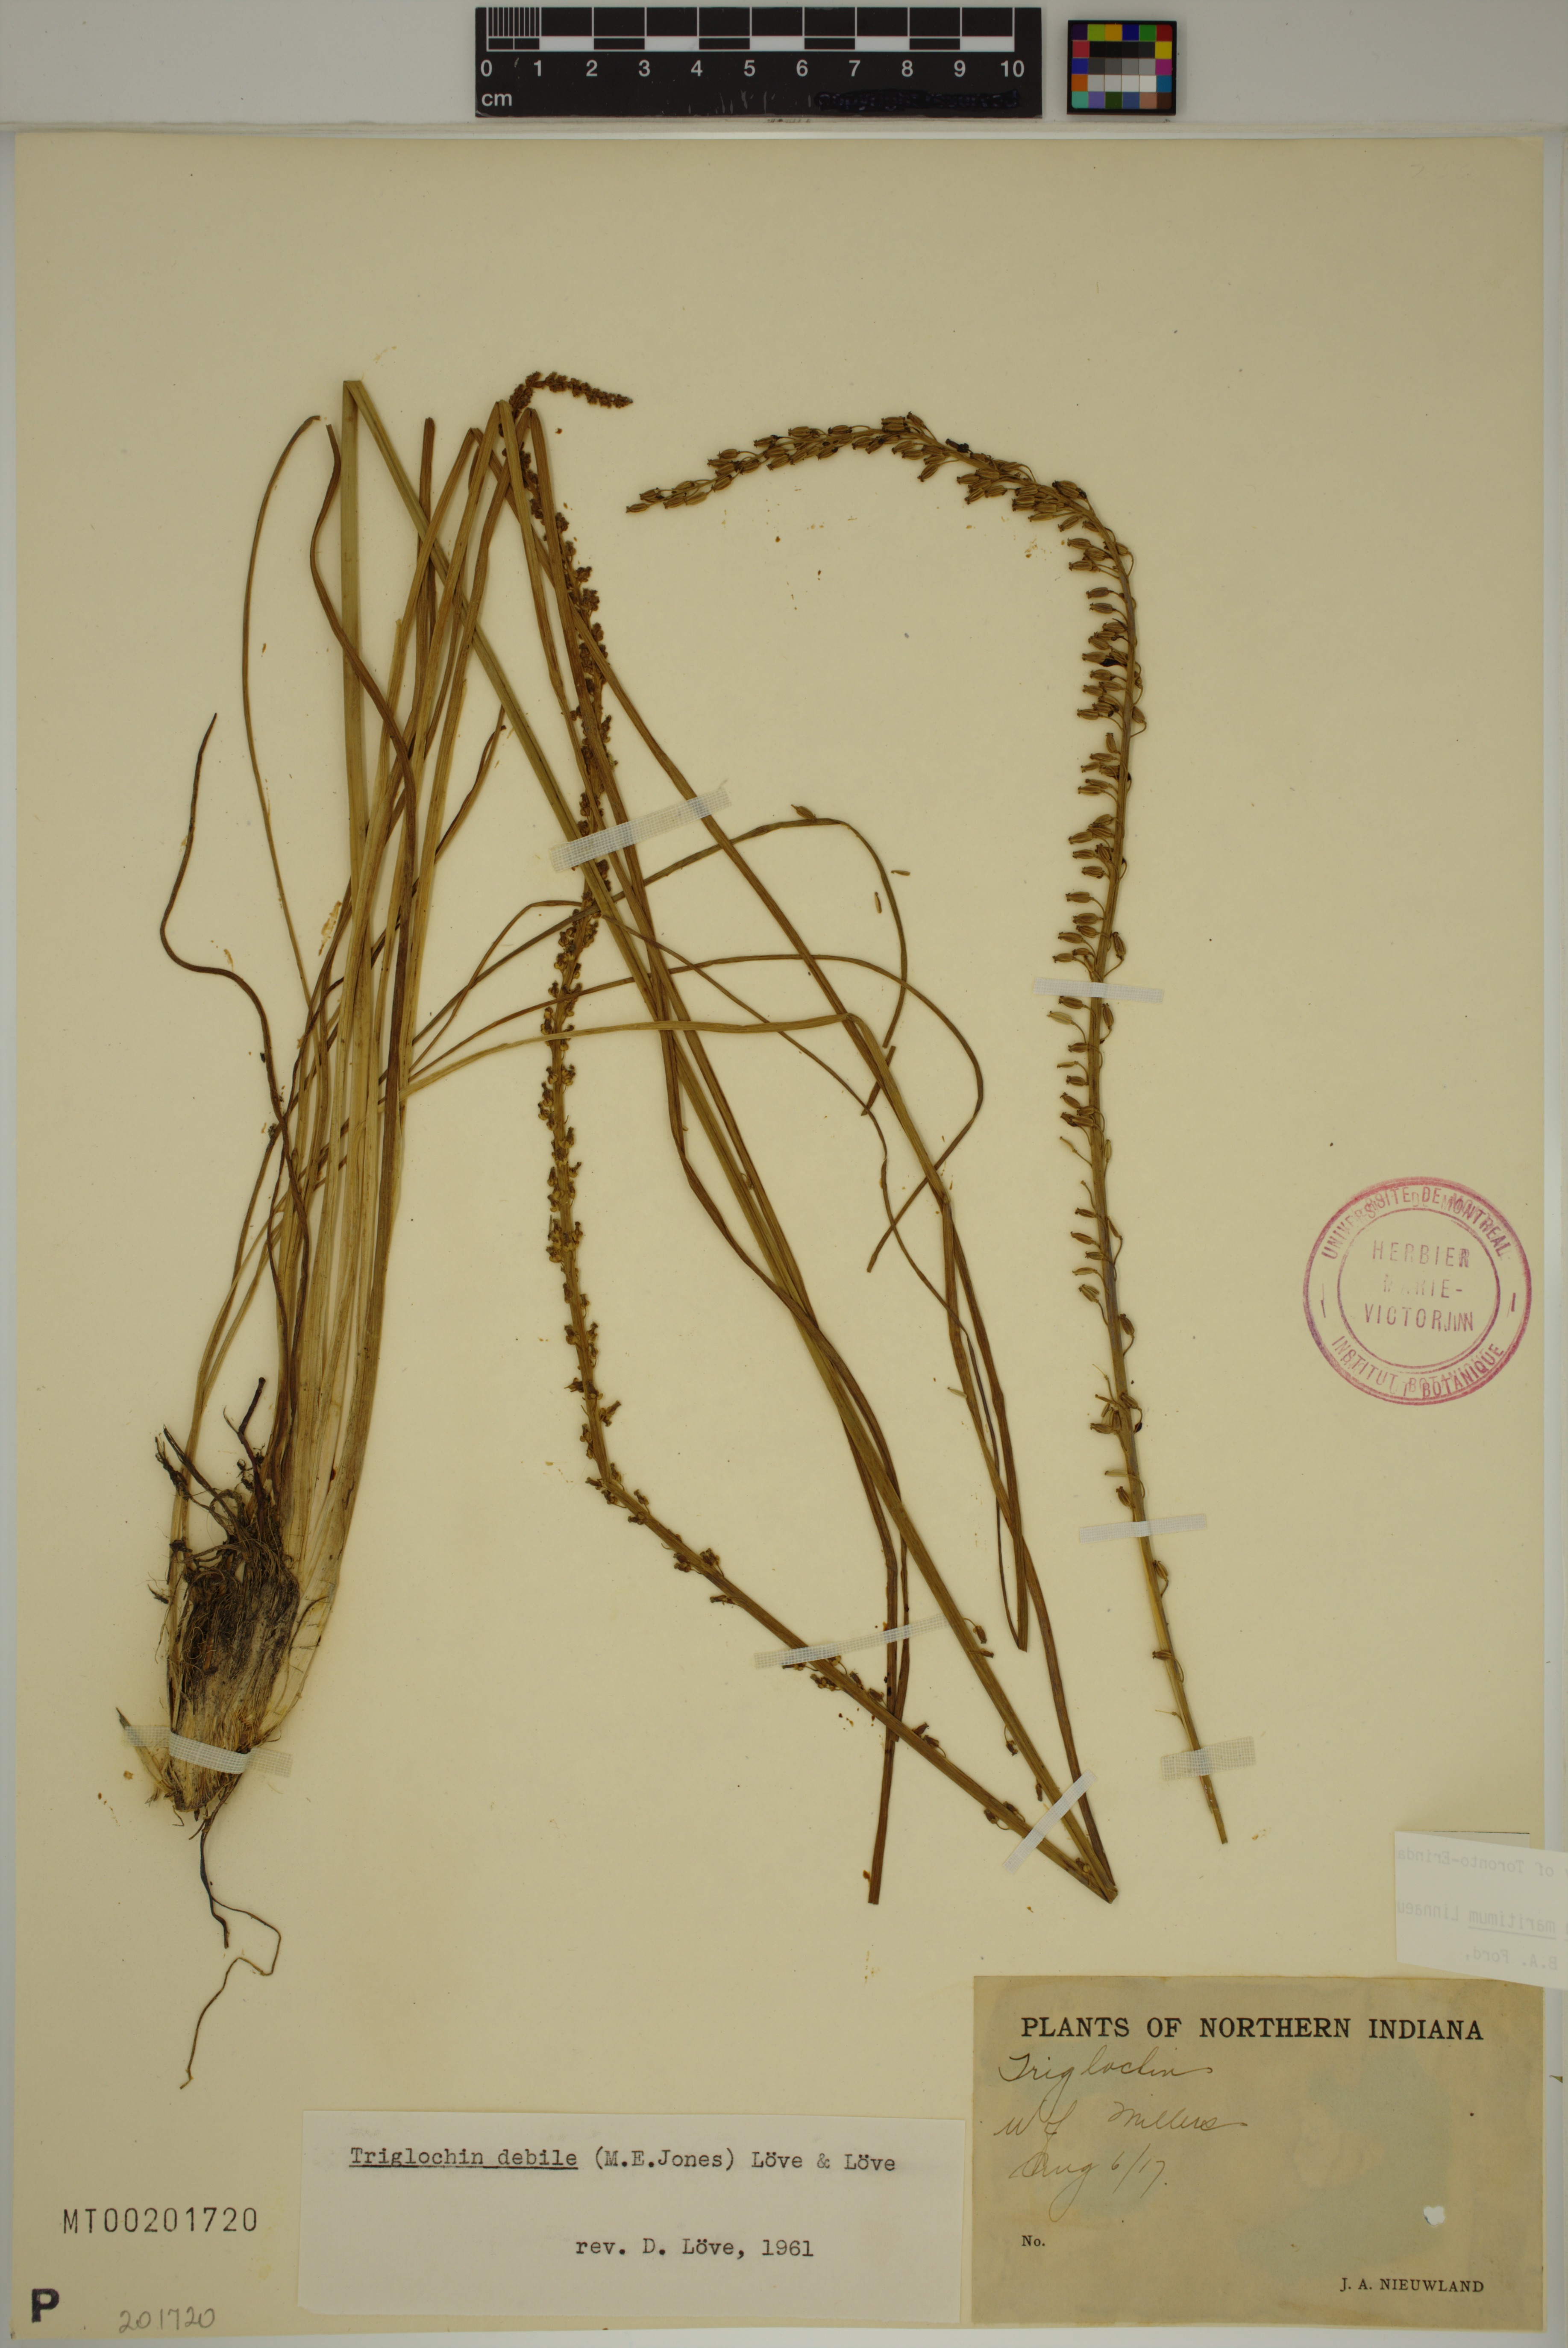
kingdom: Plantae
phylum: Tracheophyta
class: Liliopsida
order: Alismatales
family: Juncaginaceae
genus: Triglochin
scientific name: Triglochin maritima
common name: Sea arrowgrass
